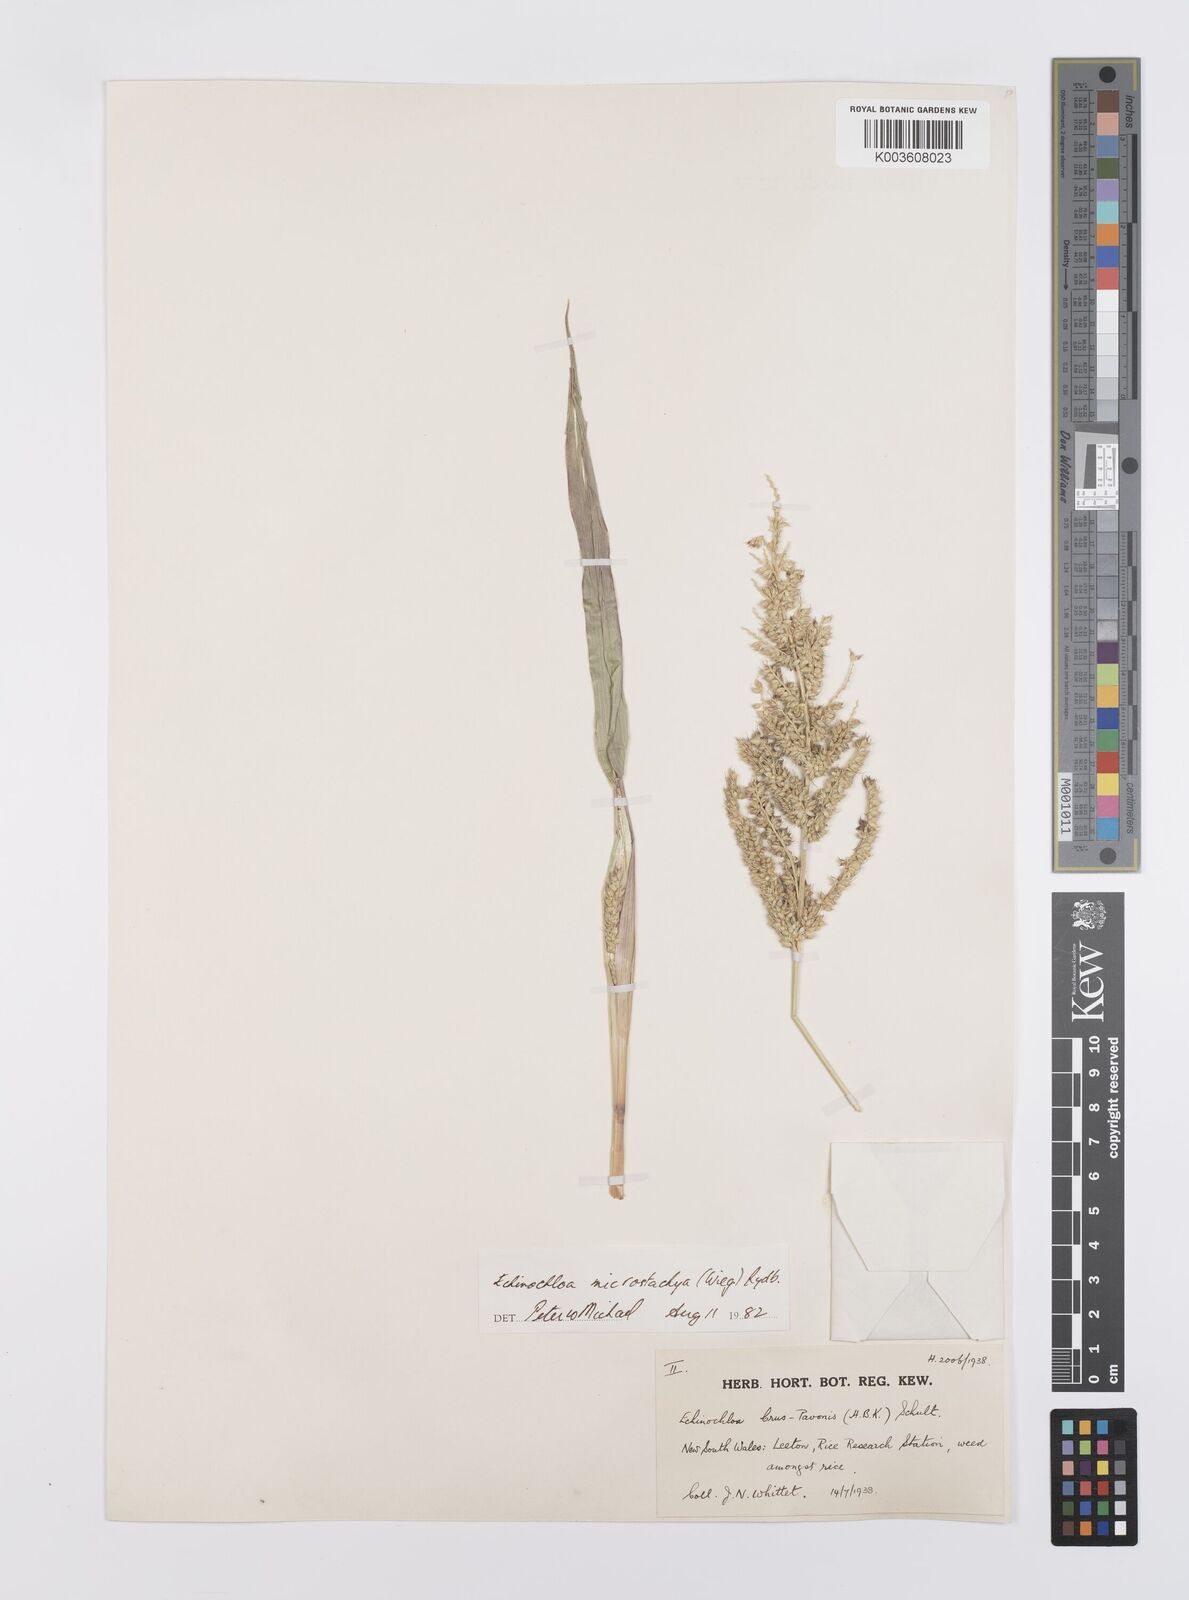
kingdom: Plantae
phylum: Tracheophyta
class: Liliopsida
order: Poales
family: Poaceae
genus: Echinochloa
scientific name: Echinochloa crus-galli
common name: Cockspur
